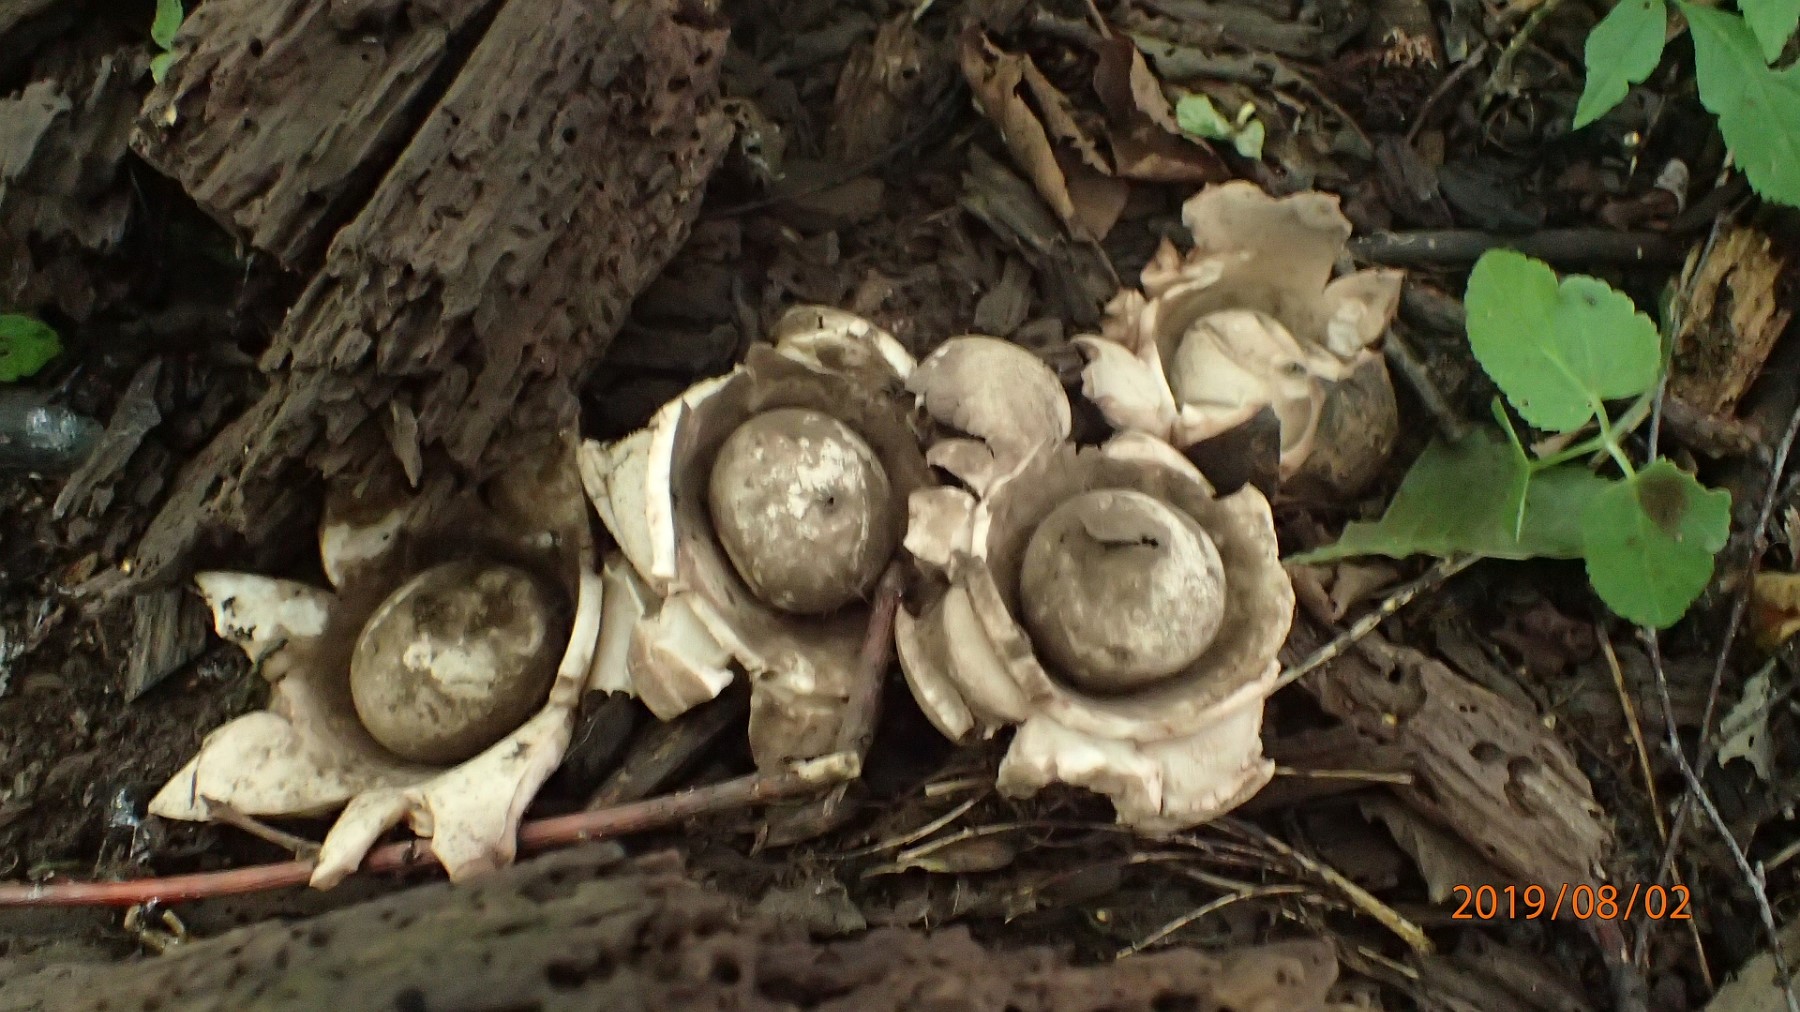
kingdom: Fungi
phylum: Basidiomycota
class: Agaricomycetes
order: Geastrales
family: Geastraceae
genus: Geastrum
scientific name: Geastrum michelianum
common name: kødet stjernebold
